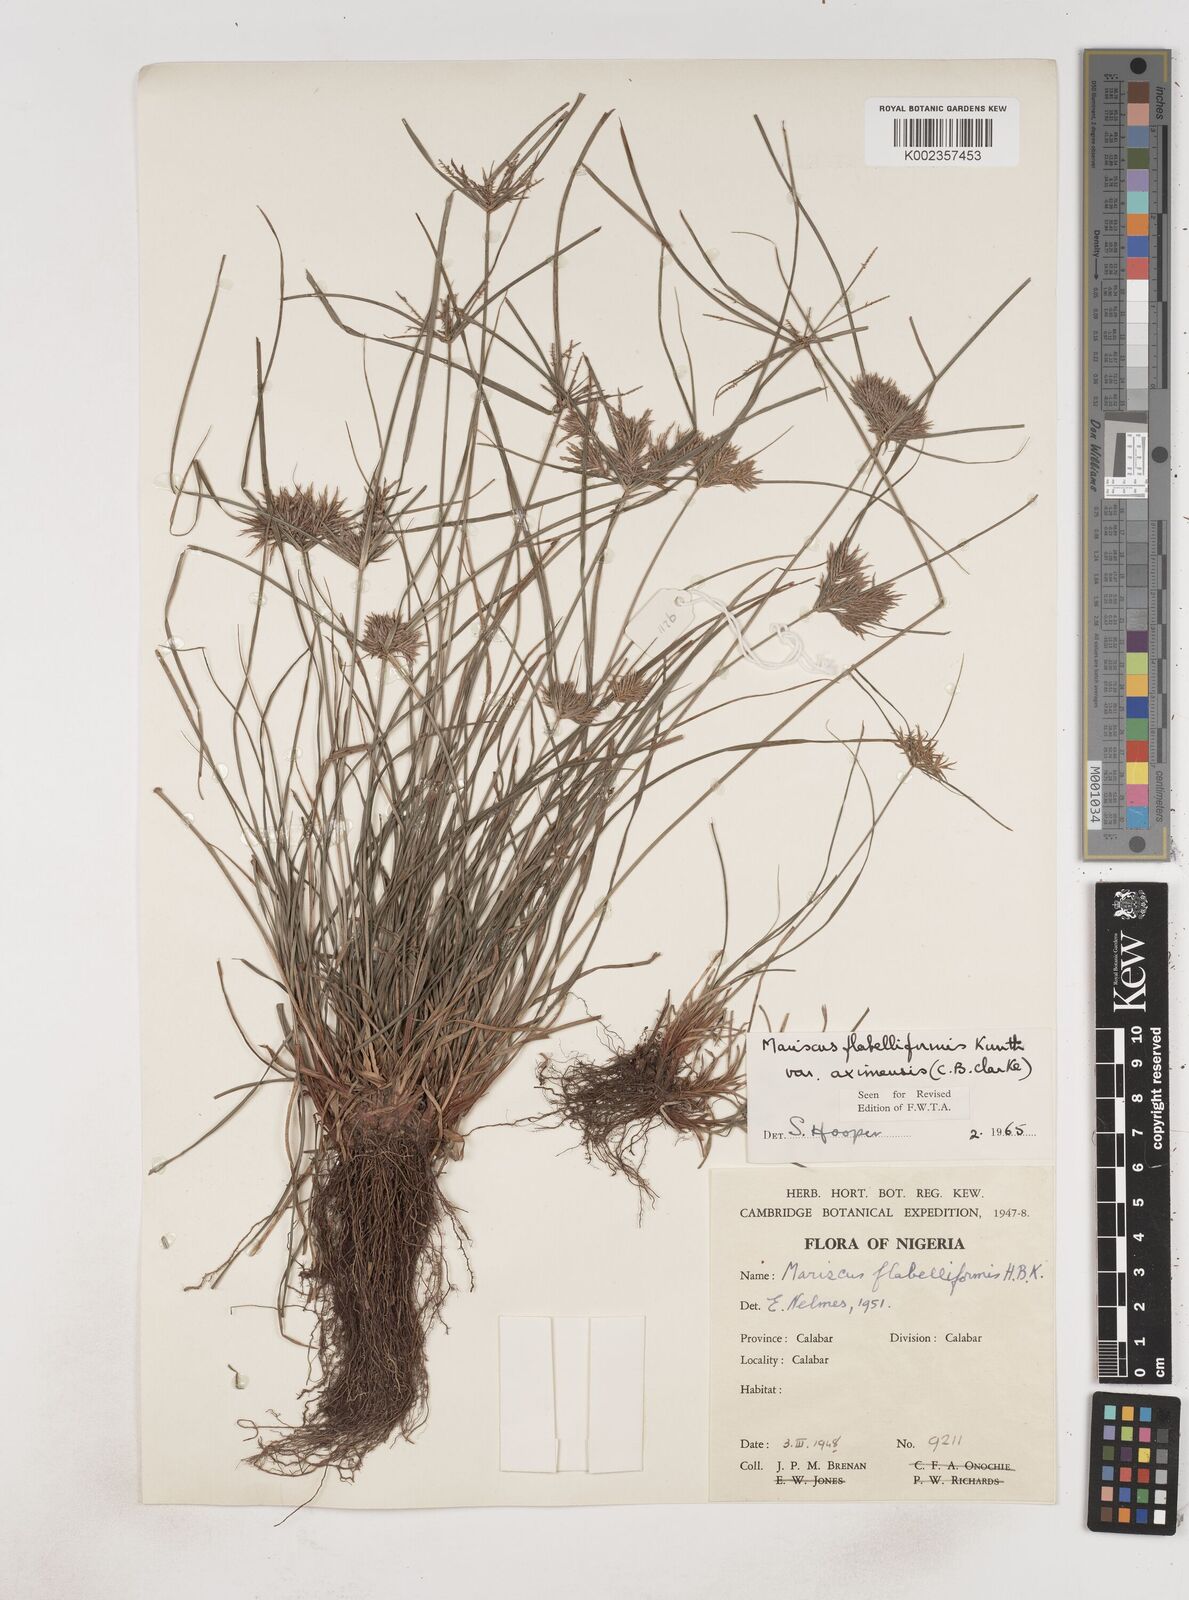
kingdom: Plantae
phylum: Tracheophyta
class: Liliopsida
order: Poales
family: Cyperaceae
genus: Cyperus
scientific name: Cyperus tenuis
